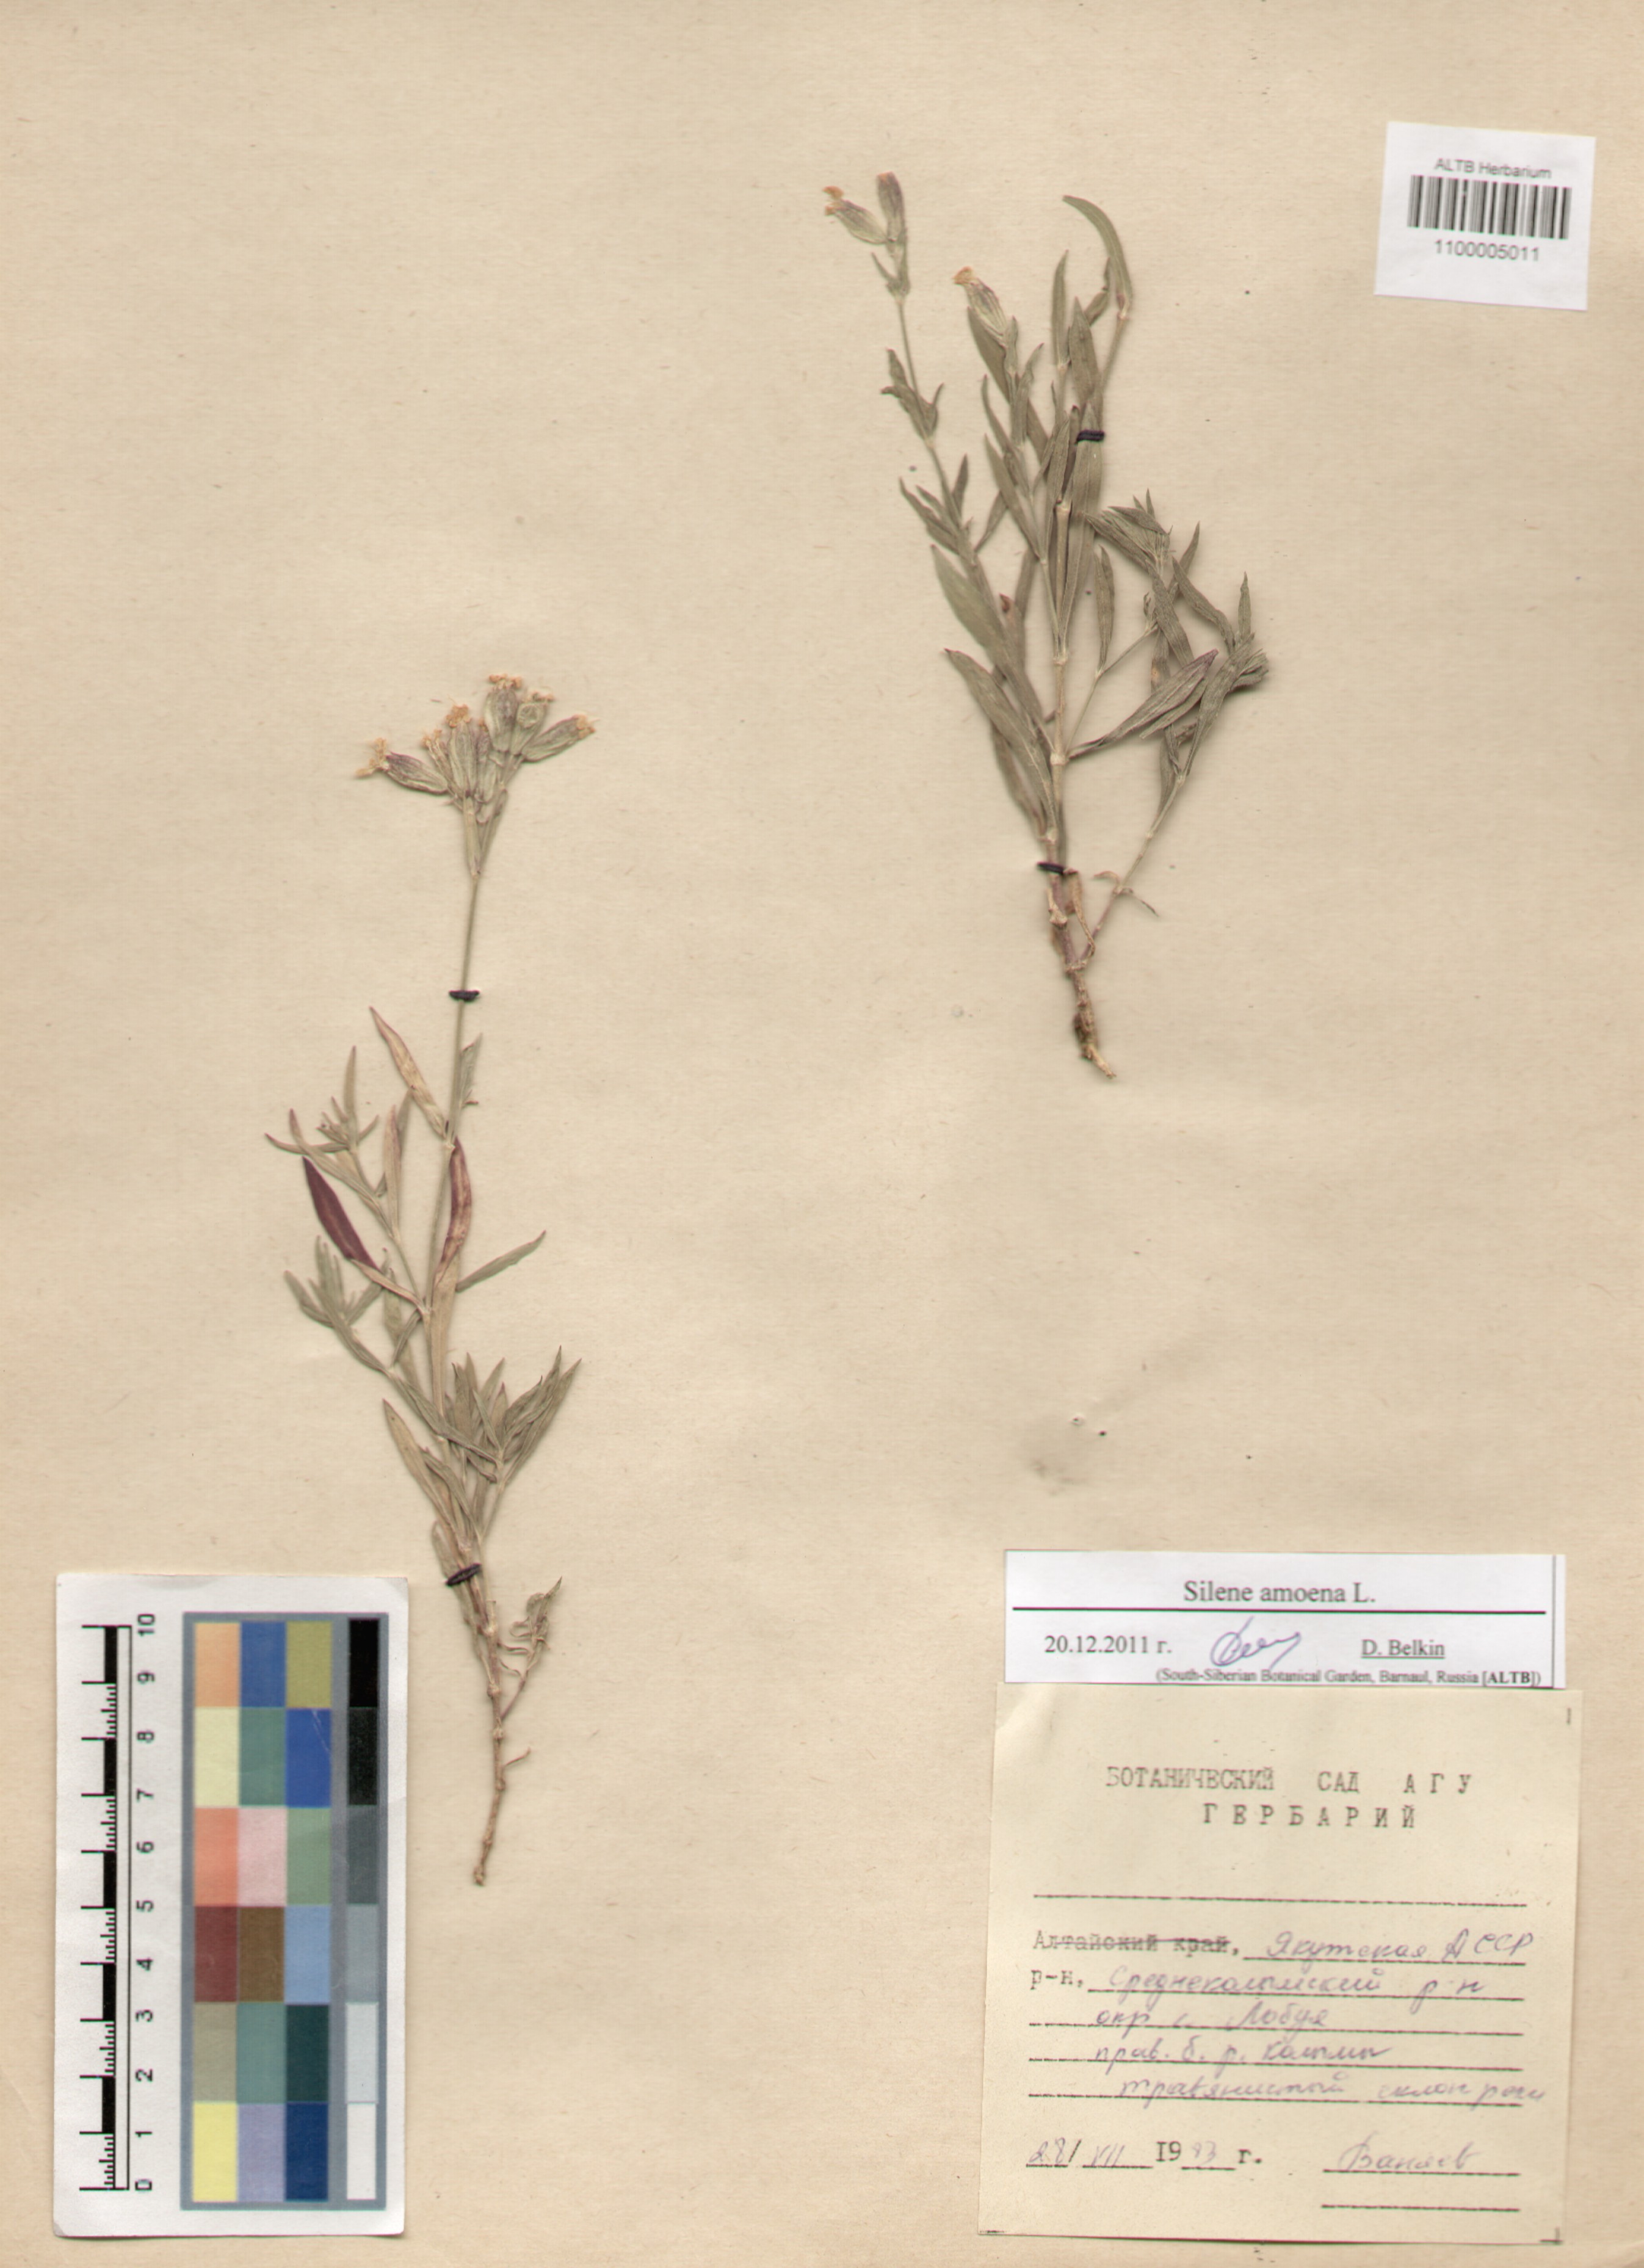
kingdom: Plantae
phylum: Tracheophyta
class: Magnoliopsida
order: Caryophyllales
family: Caryophyllaceae
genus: Silene
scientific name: Silene amoena
